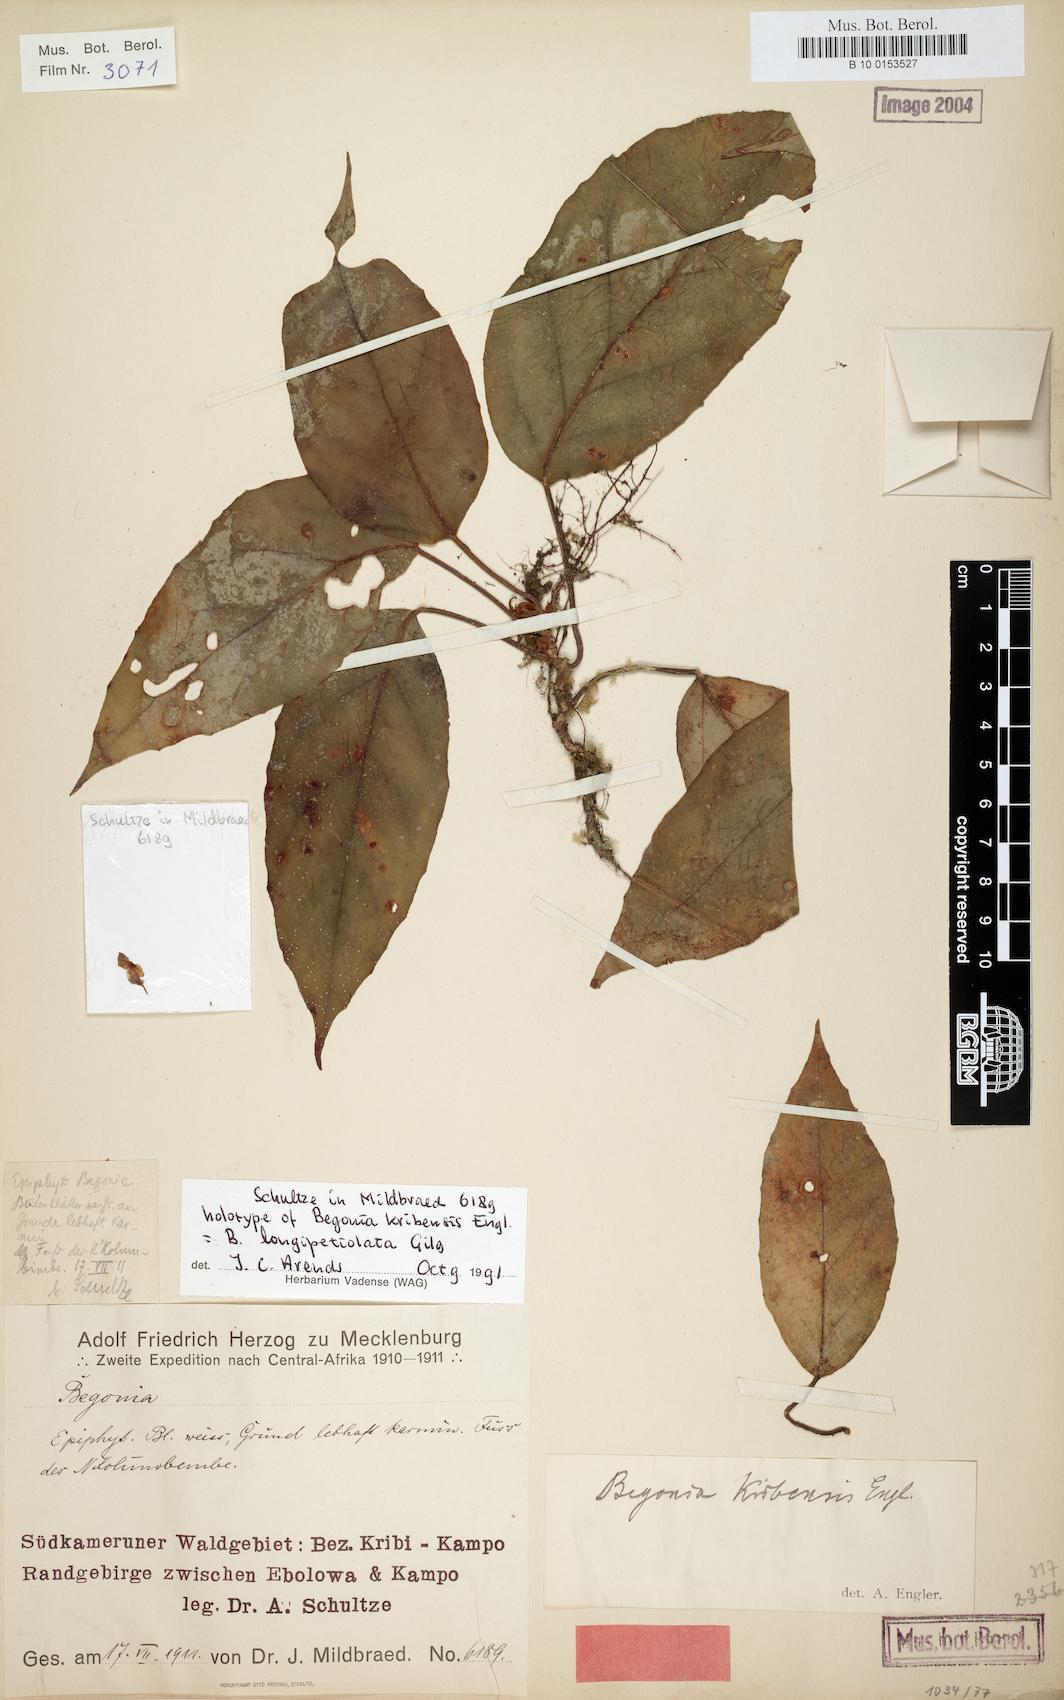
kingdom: Plantae
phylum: Tracheophyta
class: Magnoliopsida
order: Cucurbitales
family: Begoniaceae
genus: Begonia
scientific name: Begonia longipetiolata
